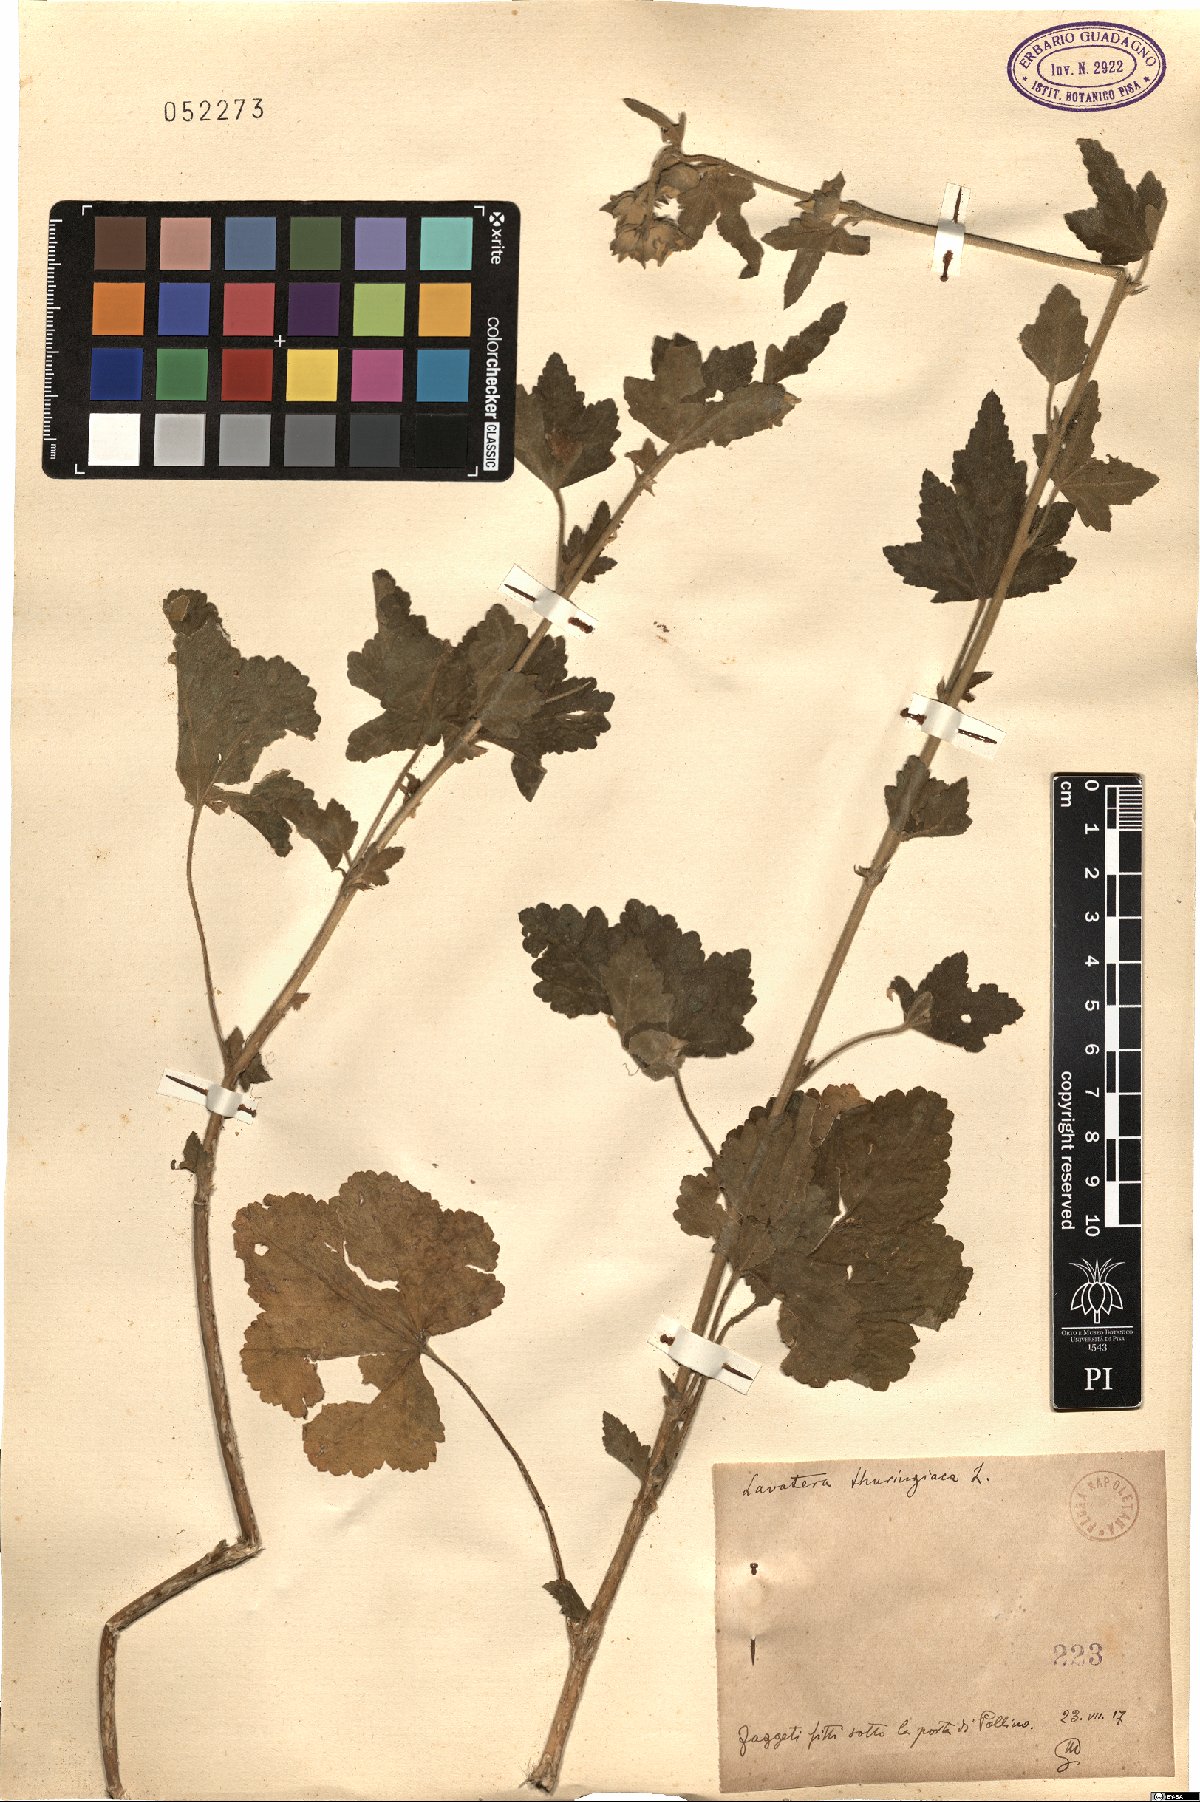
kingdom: Plantae
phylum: Tracheophyta
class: Magnoliopsida
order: Malvales
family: Malvaceae
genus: Malva
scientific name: Malva thuringiaca
